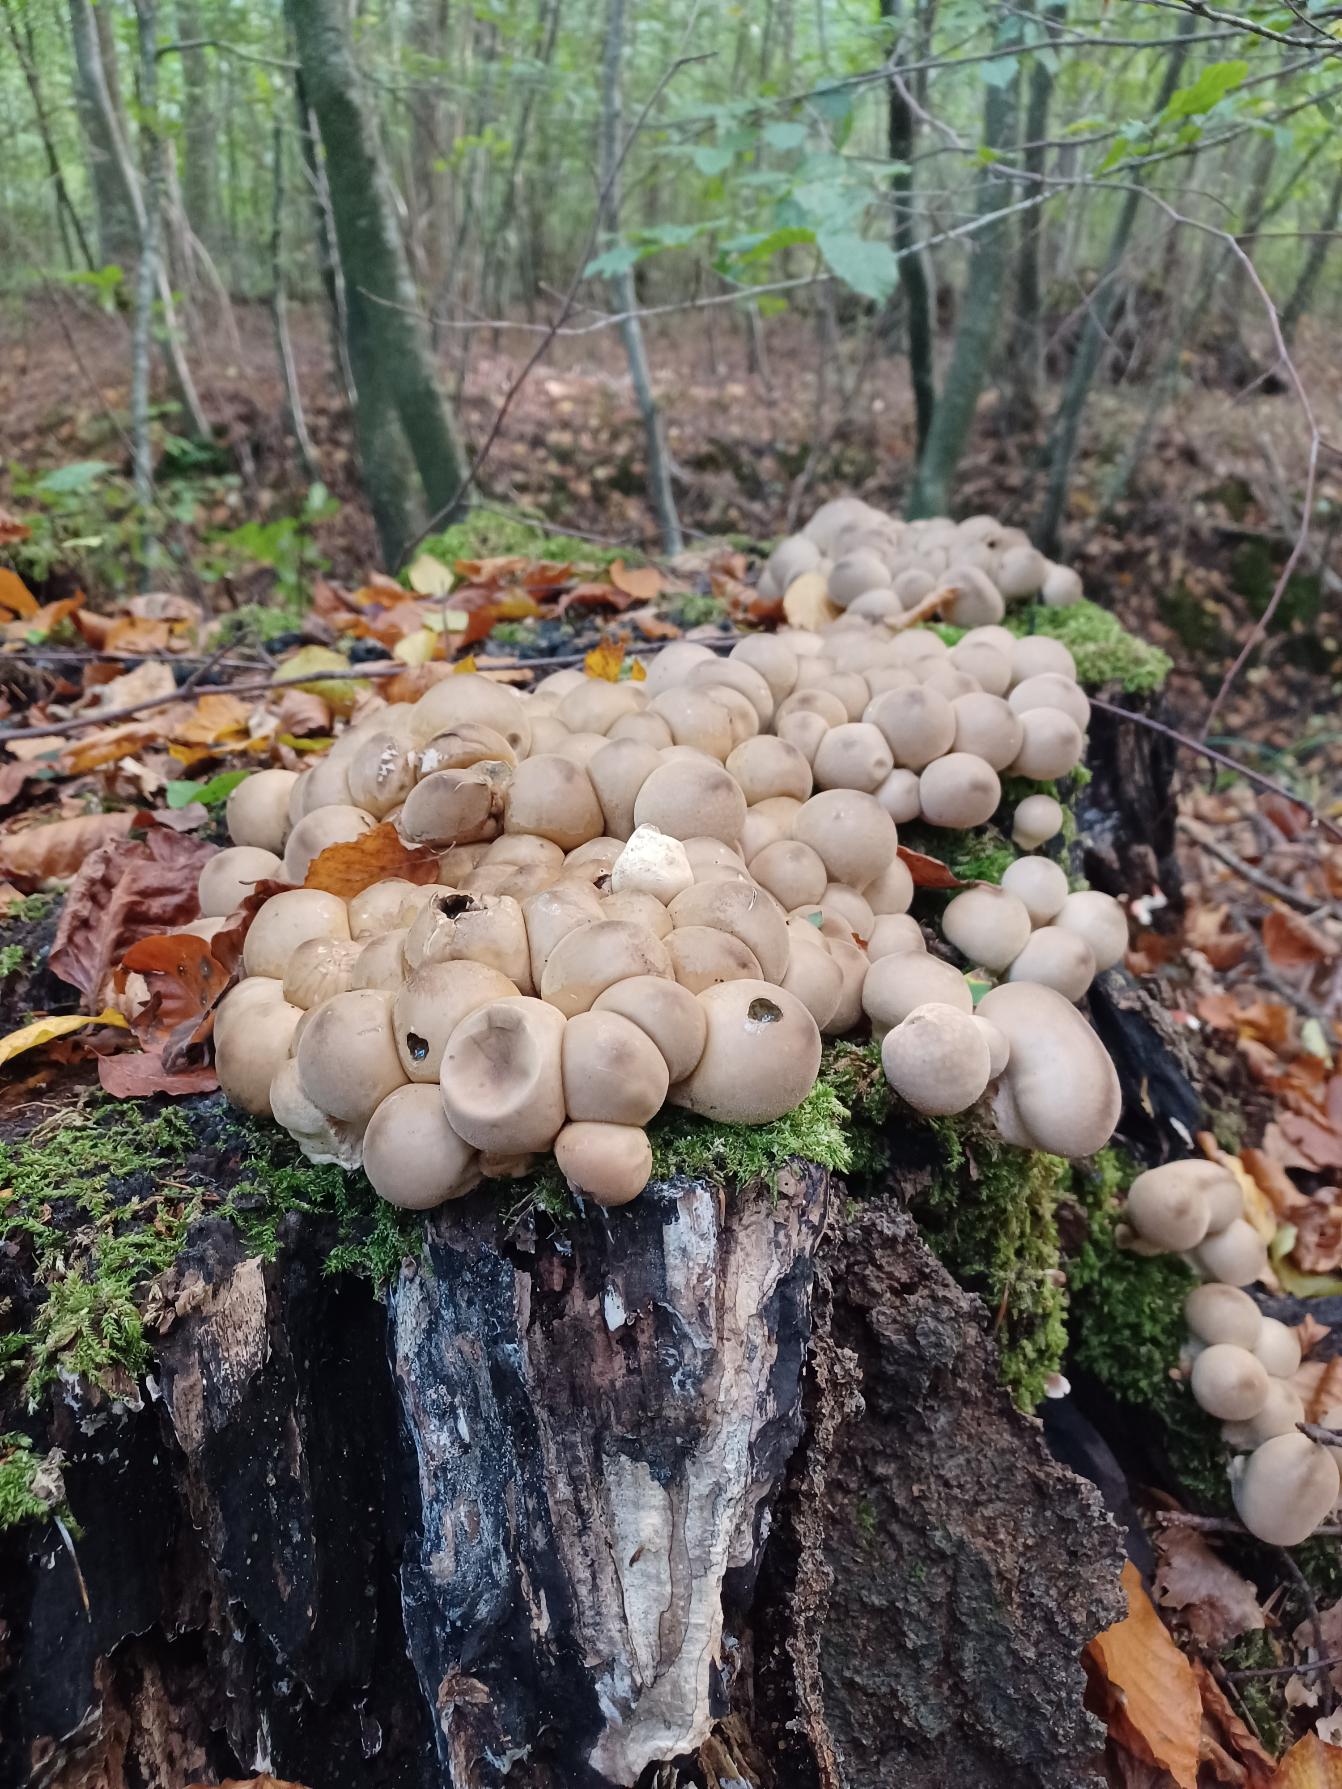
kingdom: Fungi
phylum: Basidiomycota
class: Agaricomycetes
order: Agaricales
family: Lycoperdaceae
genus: Apioperdon
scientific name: Apioperdon pyriforme
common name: Pære-støvbold
